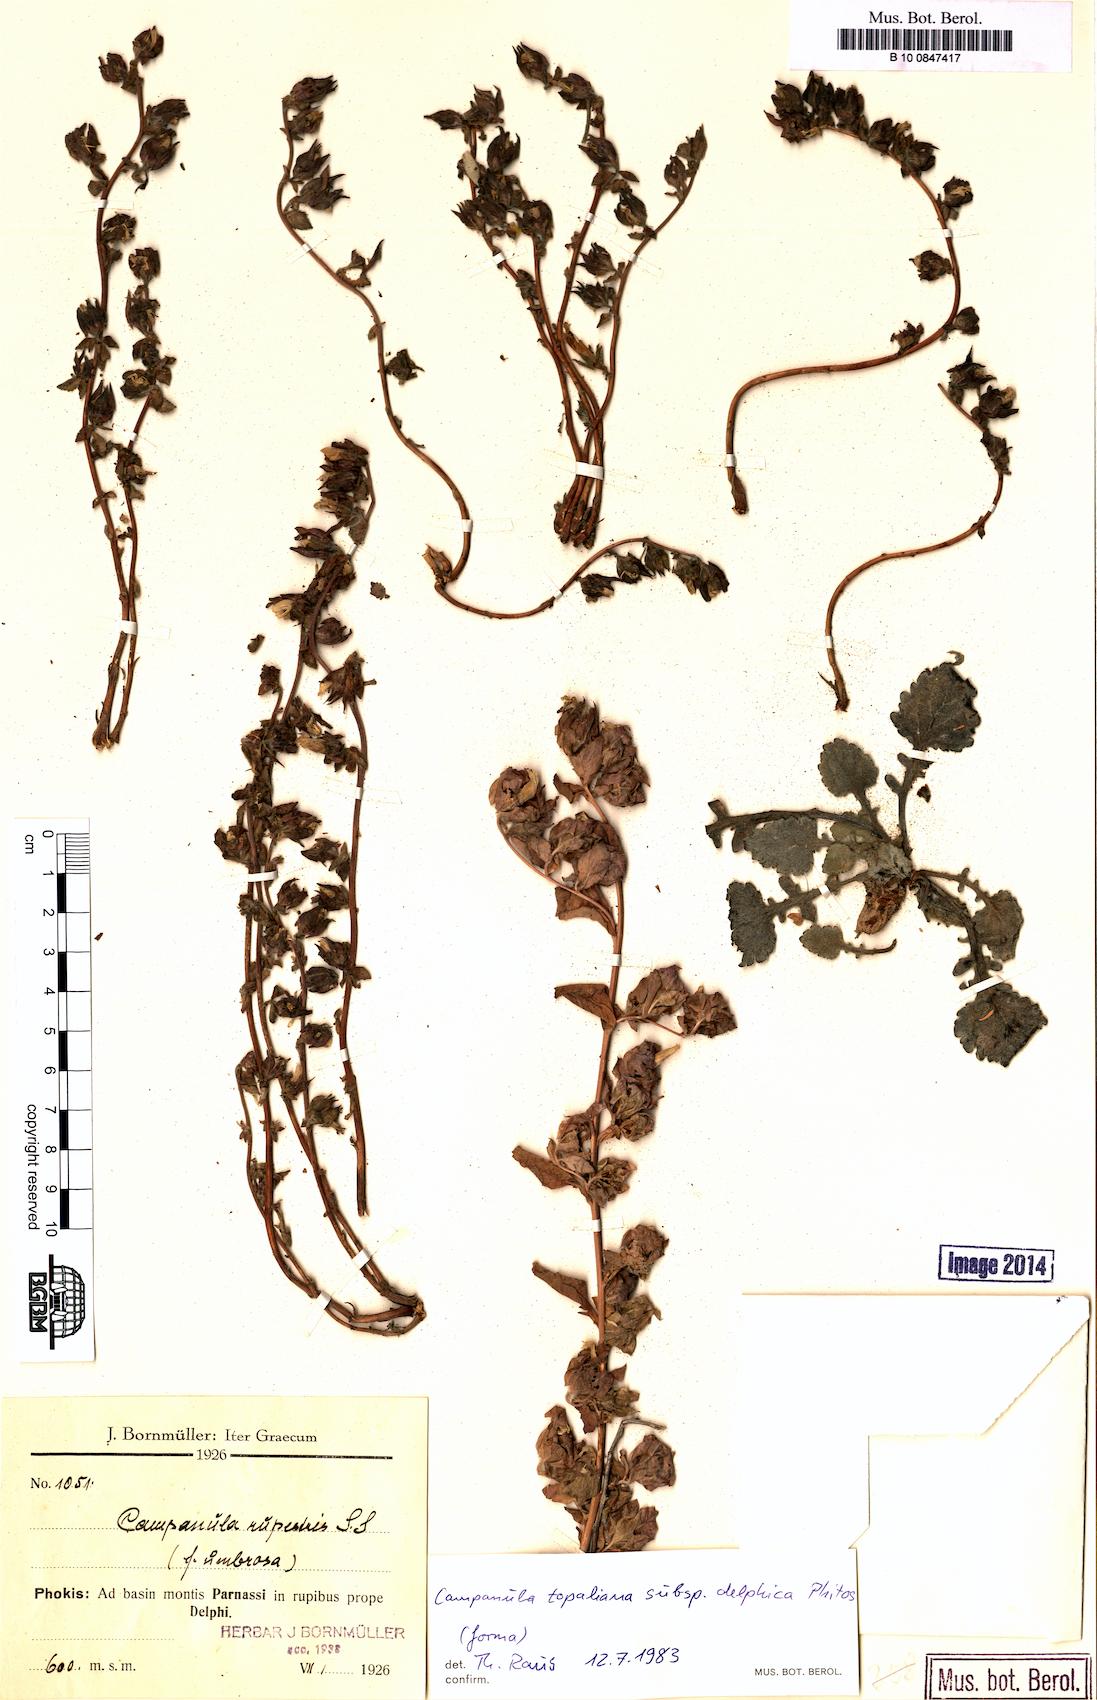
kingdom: Plantae
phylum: Tracheophyta
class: Magnoliopsida
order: Asterales
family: Campanulaceae
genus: Campanula
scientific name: Campanula topaliana
